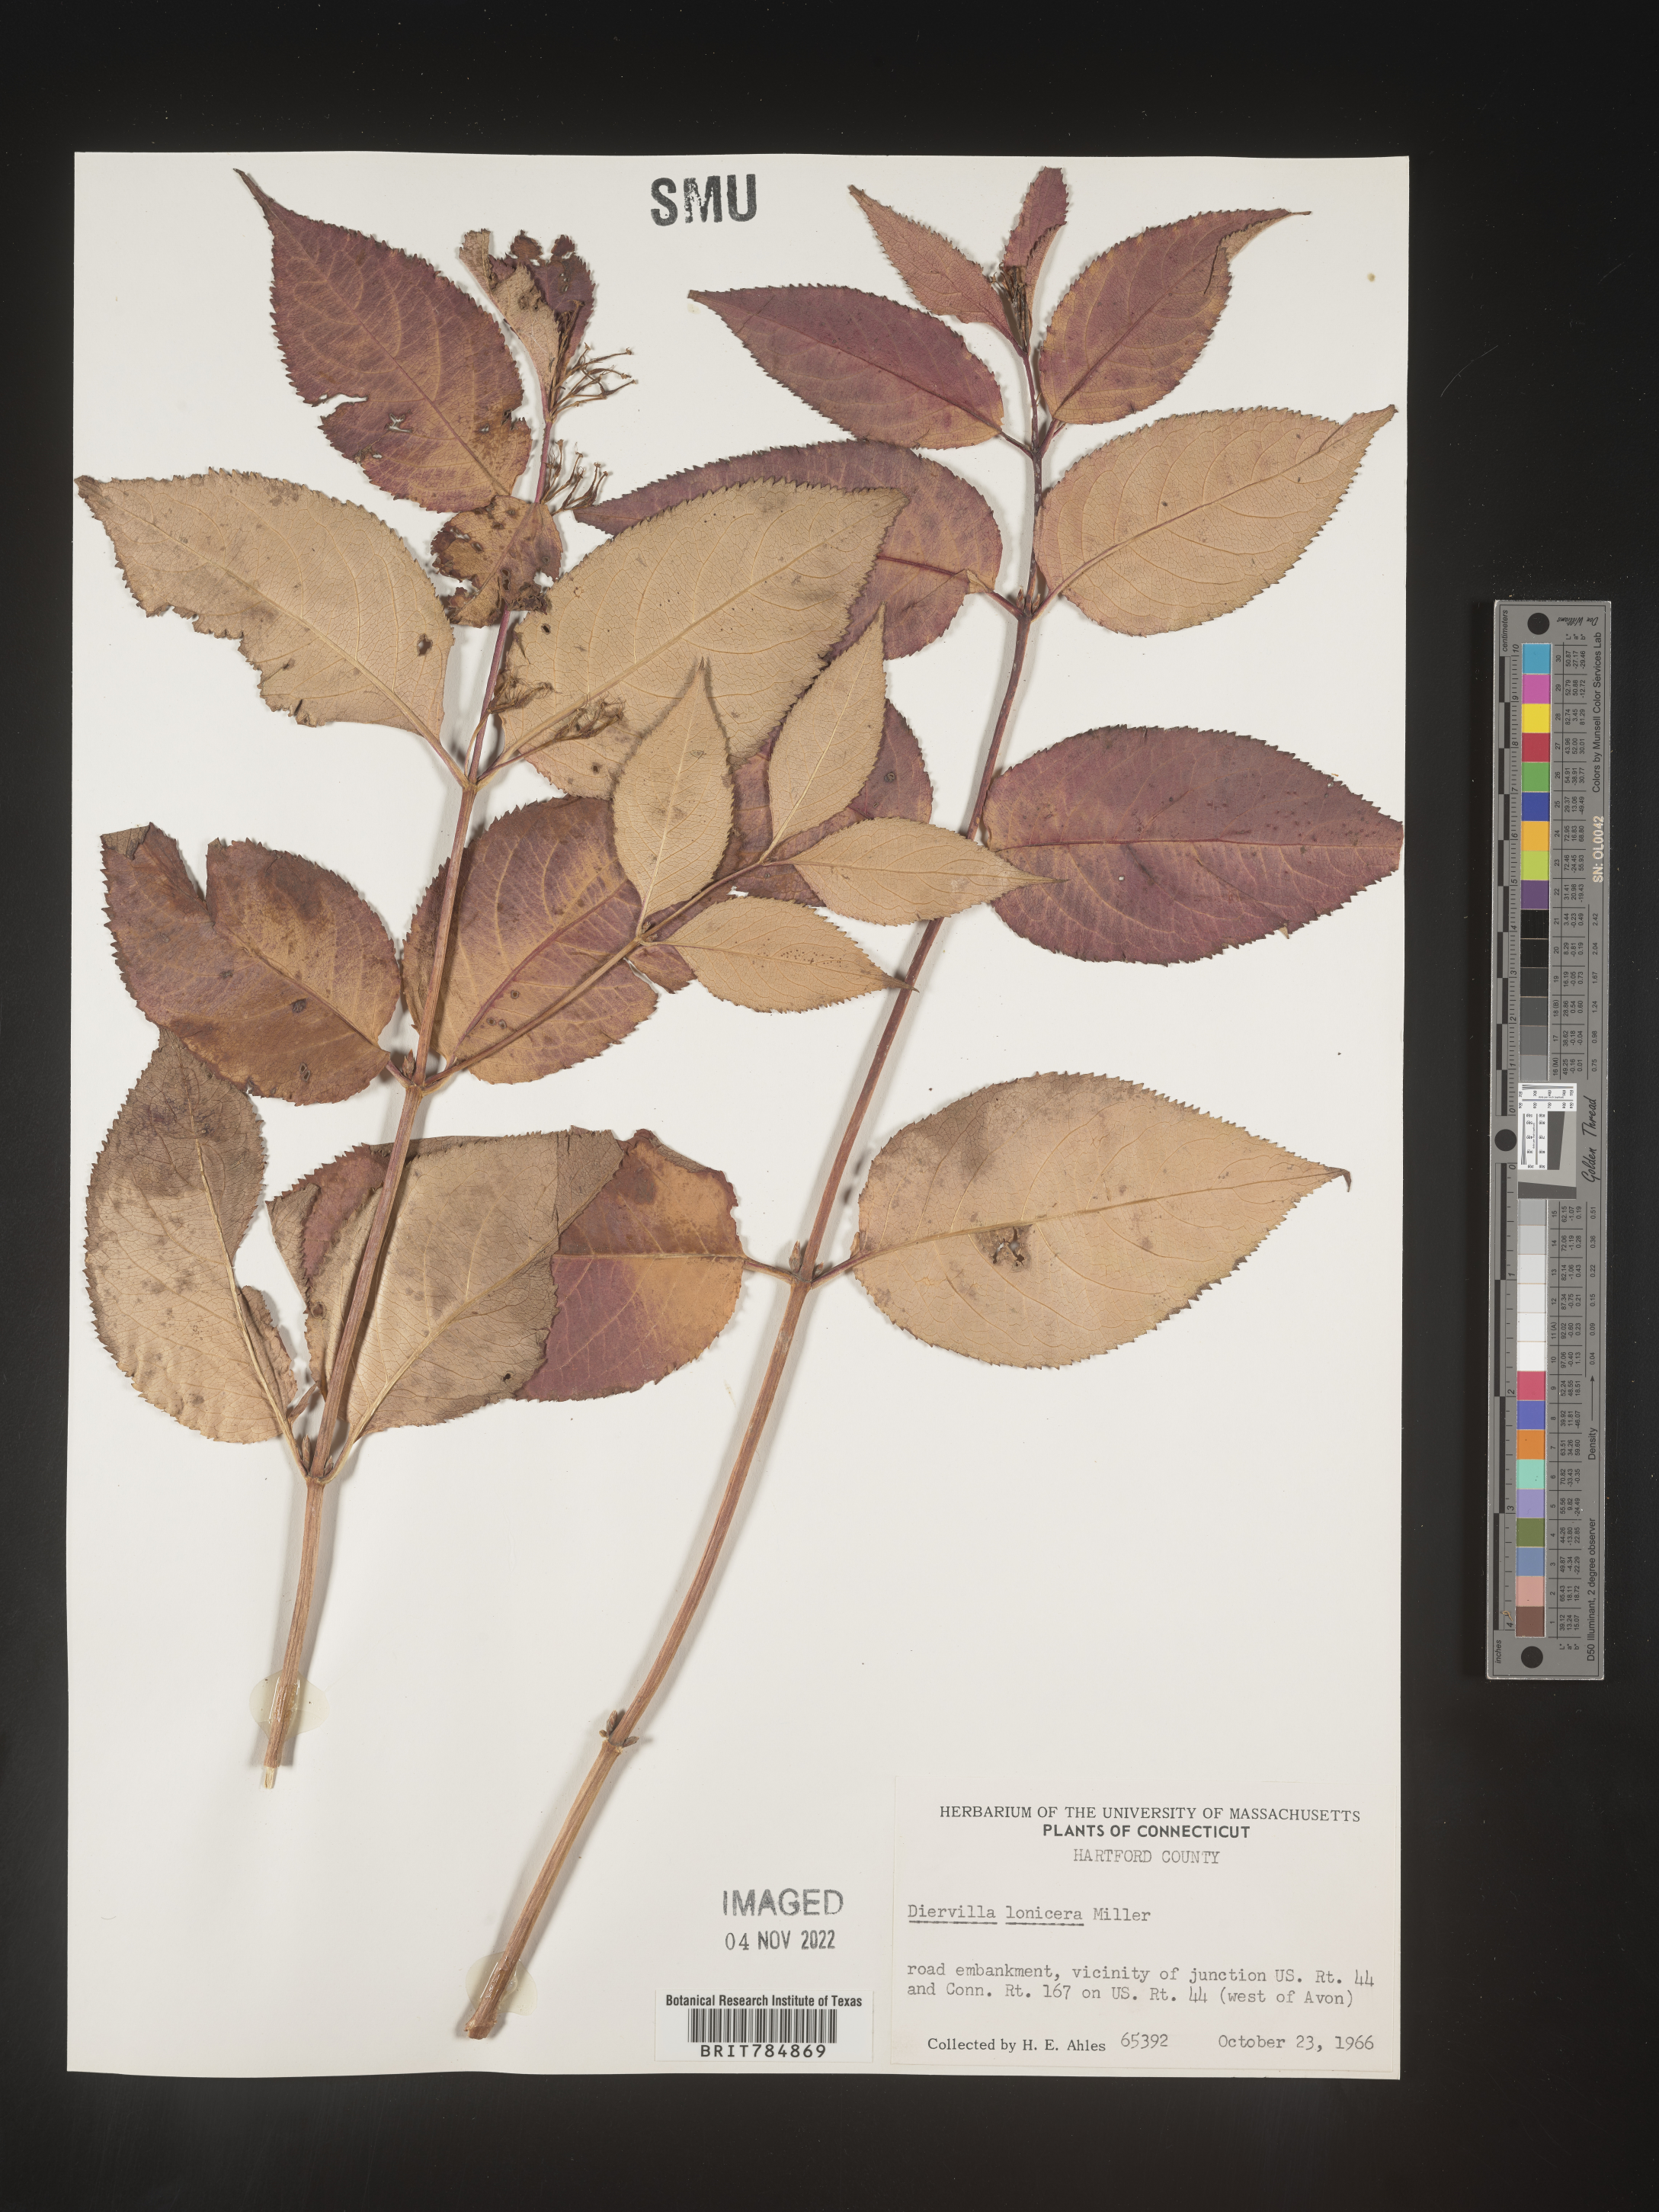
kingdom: Plantae
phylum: Tracheophyta
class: Magnoliopsida
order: Dipsacales
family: Caprifoliaceae
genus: Diervilla
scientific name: Diervilla lonicera
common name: Bush-honeysuckle
